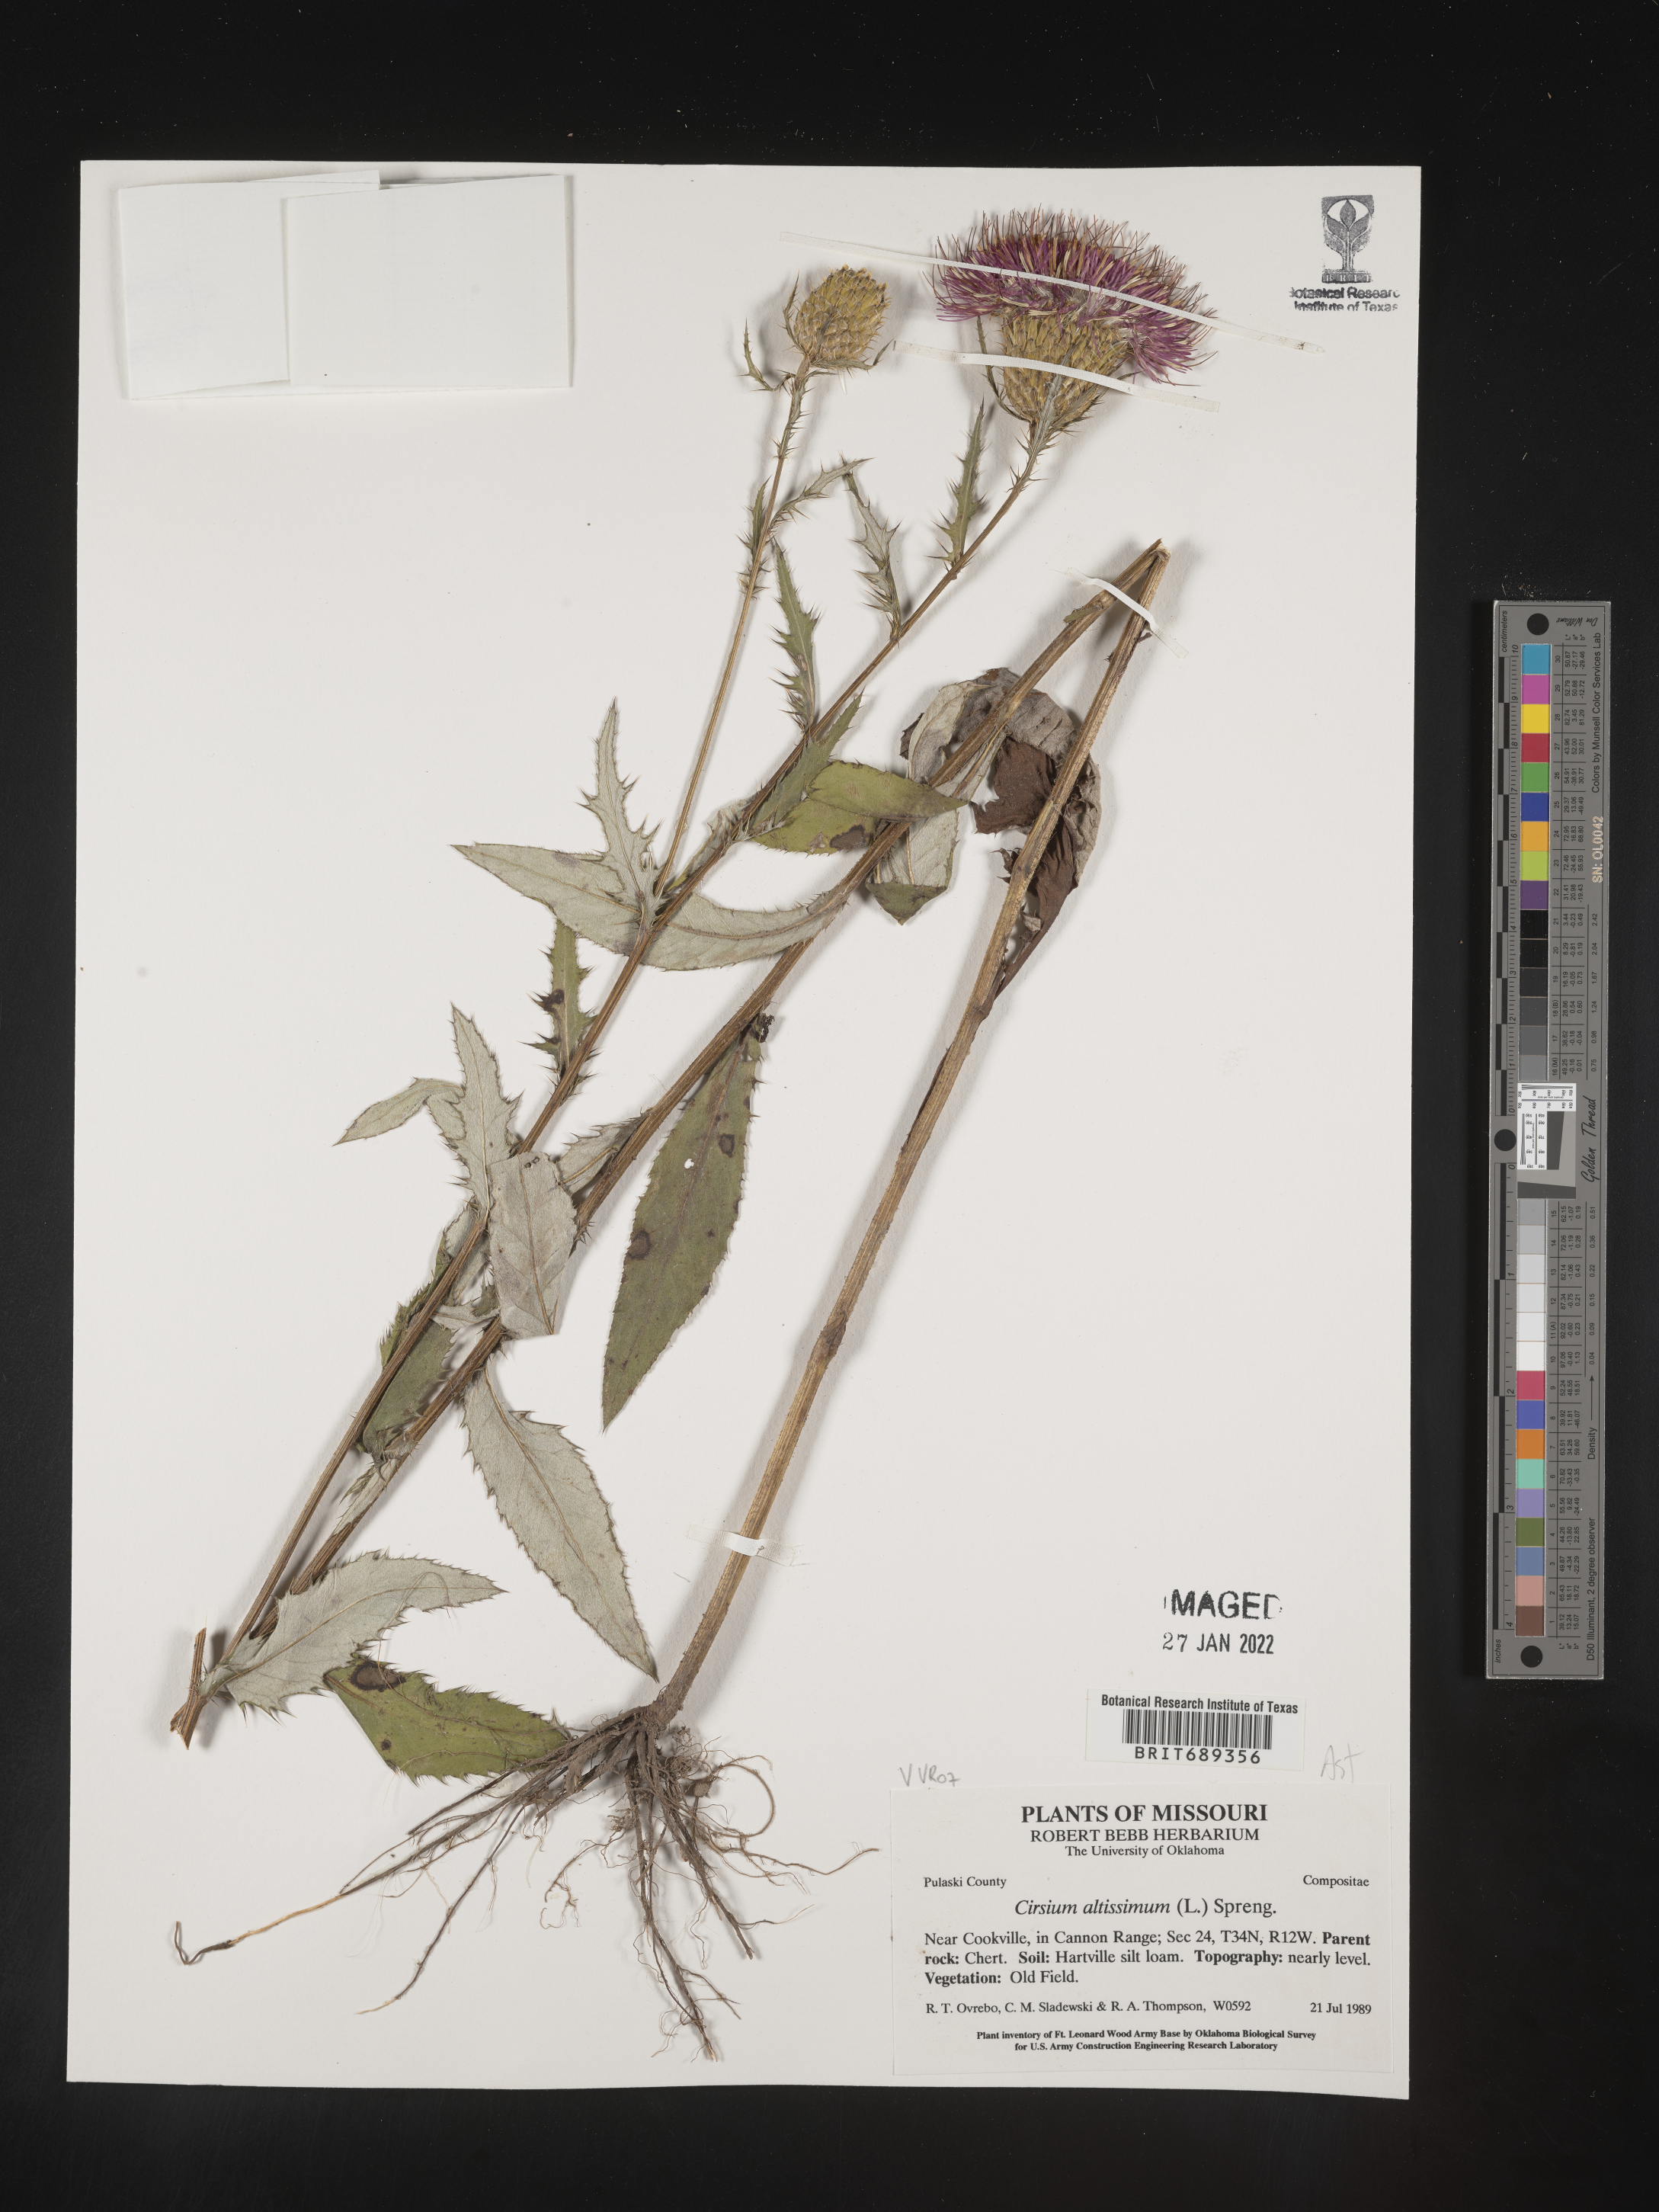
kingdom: Plantae
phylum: Tracheophyta
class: Magnoliopsida
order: Asterales
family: Asteraceae
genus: Cirsium
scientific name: Cirsium altissimum
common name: Roadside thistle
